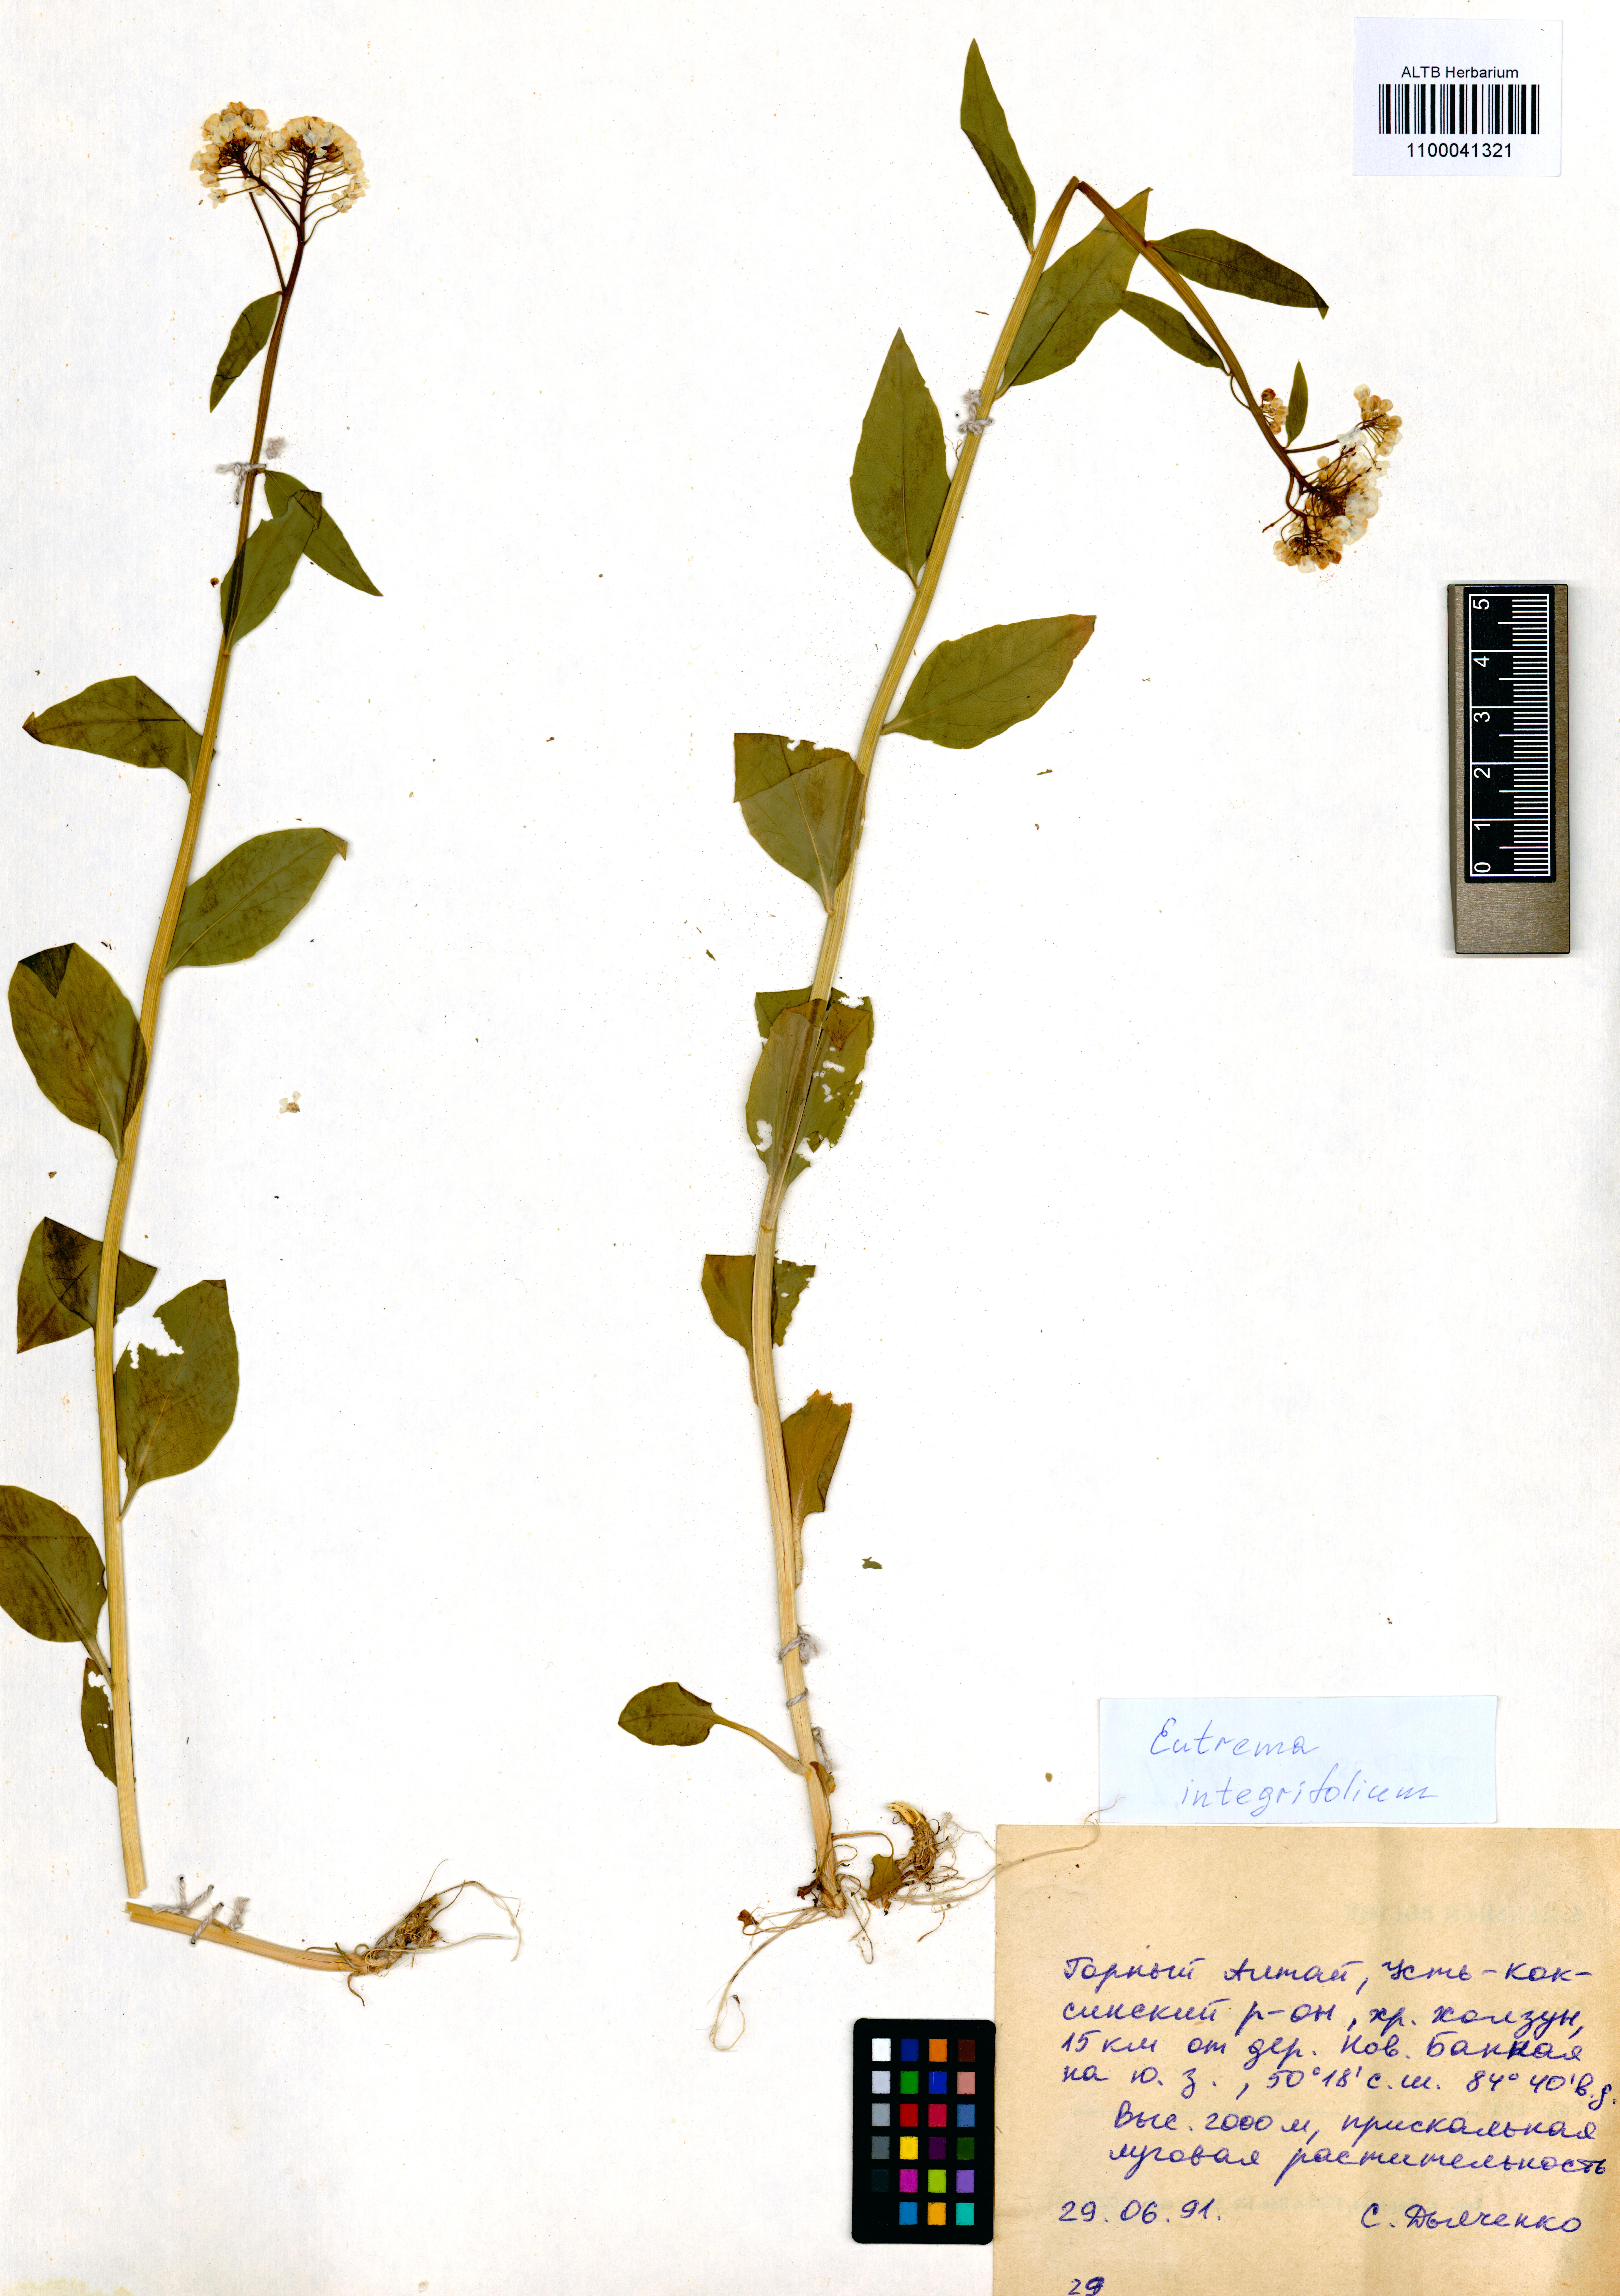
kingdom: Plantae
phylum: Tracheophyta
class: Magnoliopsida
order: Brassicales
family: Brassicaceae
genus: Eutrema
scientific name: Eutrema integrifolium
